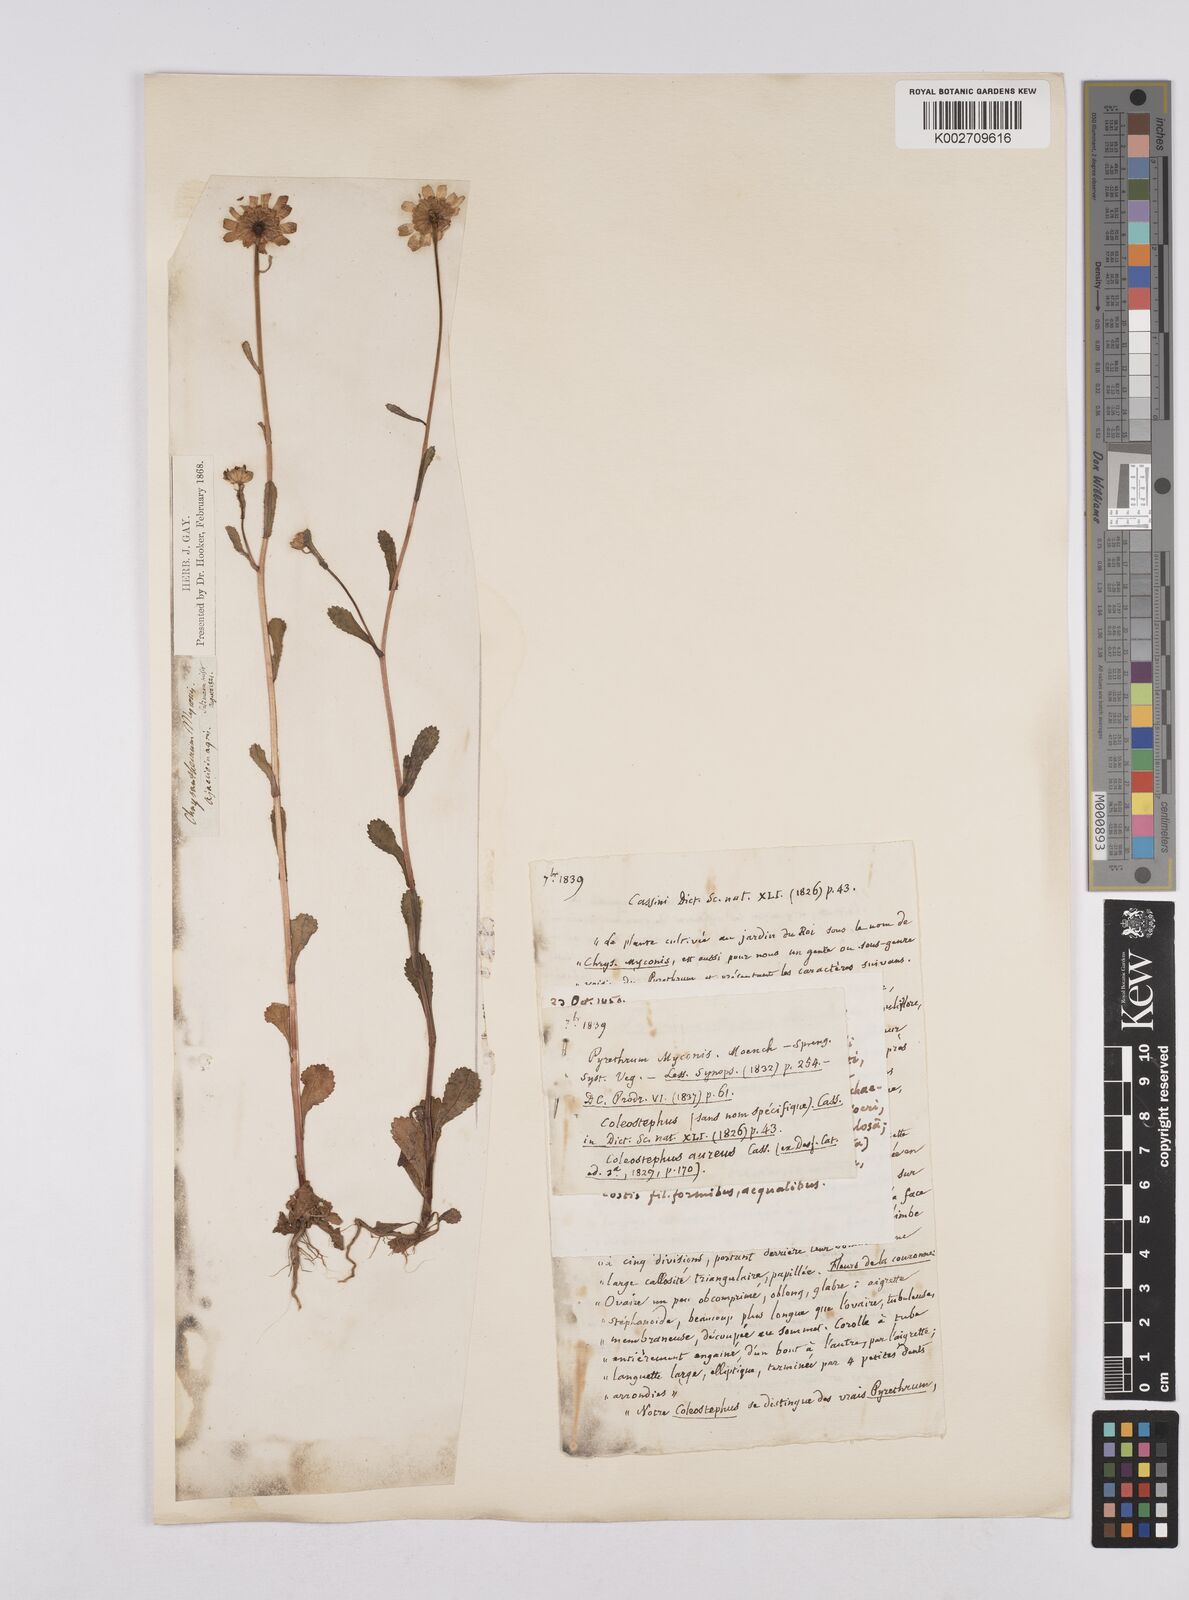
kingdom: Plantae
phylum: Tracheophyta
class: Magnoliopsida
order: Asterales
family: Asteraceae
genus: Coleostephus
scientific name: Coleostephus myconis
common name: Mediterranean marigold
